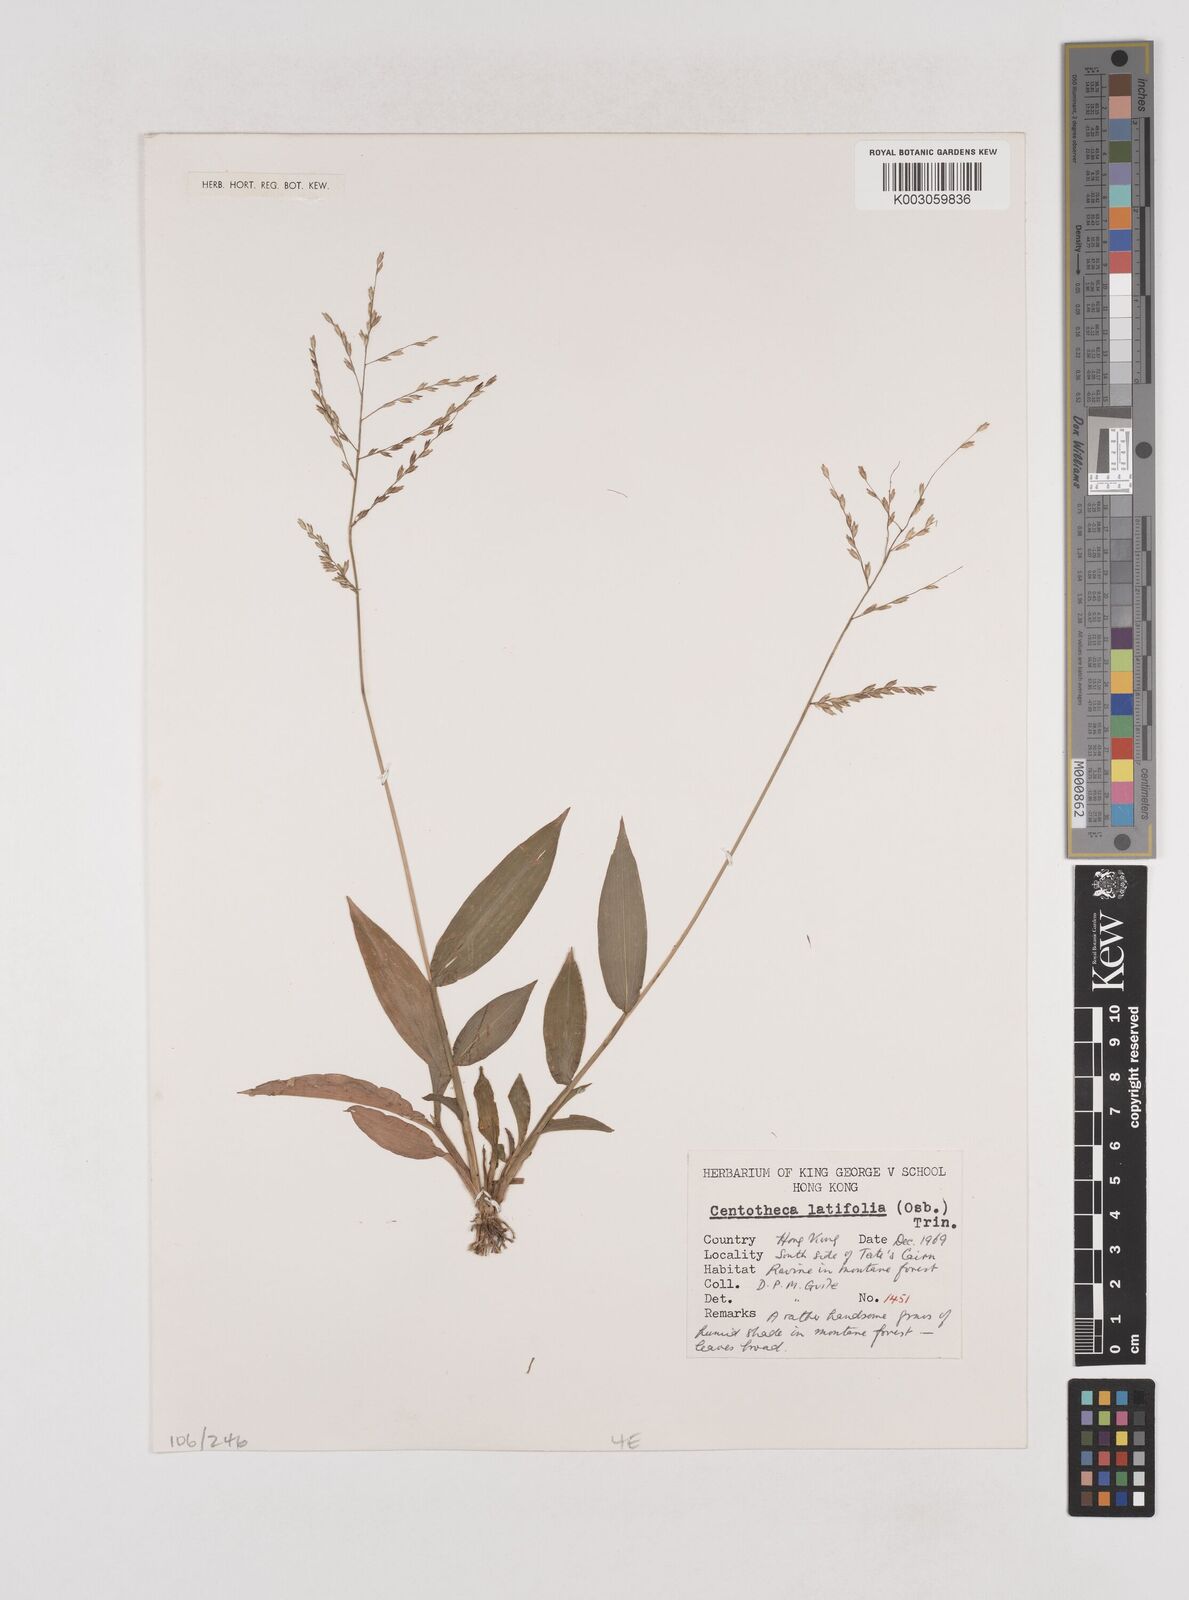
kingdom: Plantae
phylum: Tracheophyta
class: Liliopsida
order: Poales
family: Poaceae
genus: Centotheca
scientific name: Centotheca lappacea
